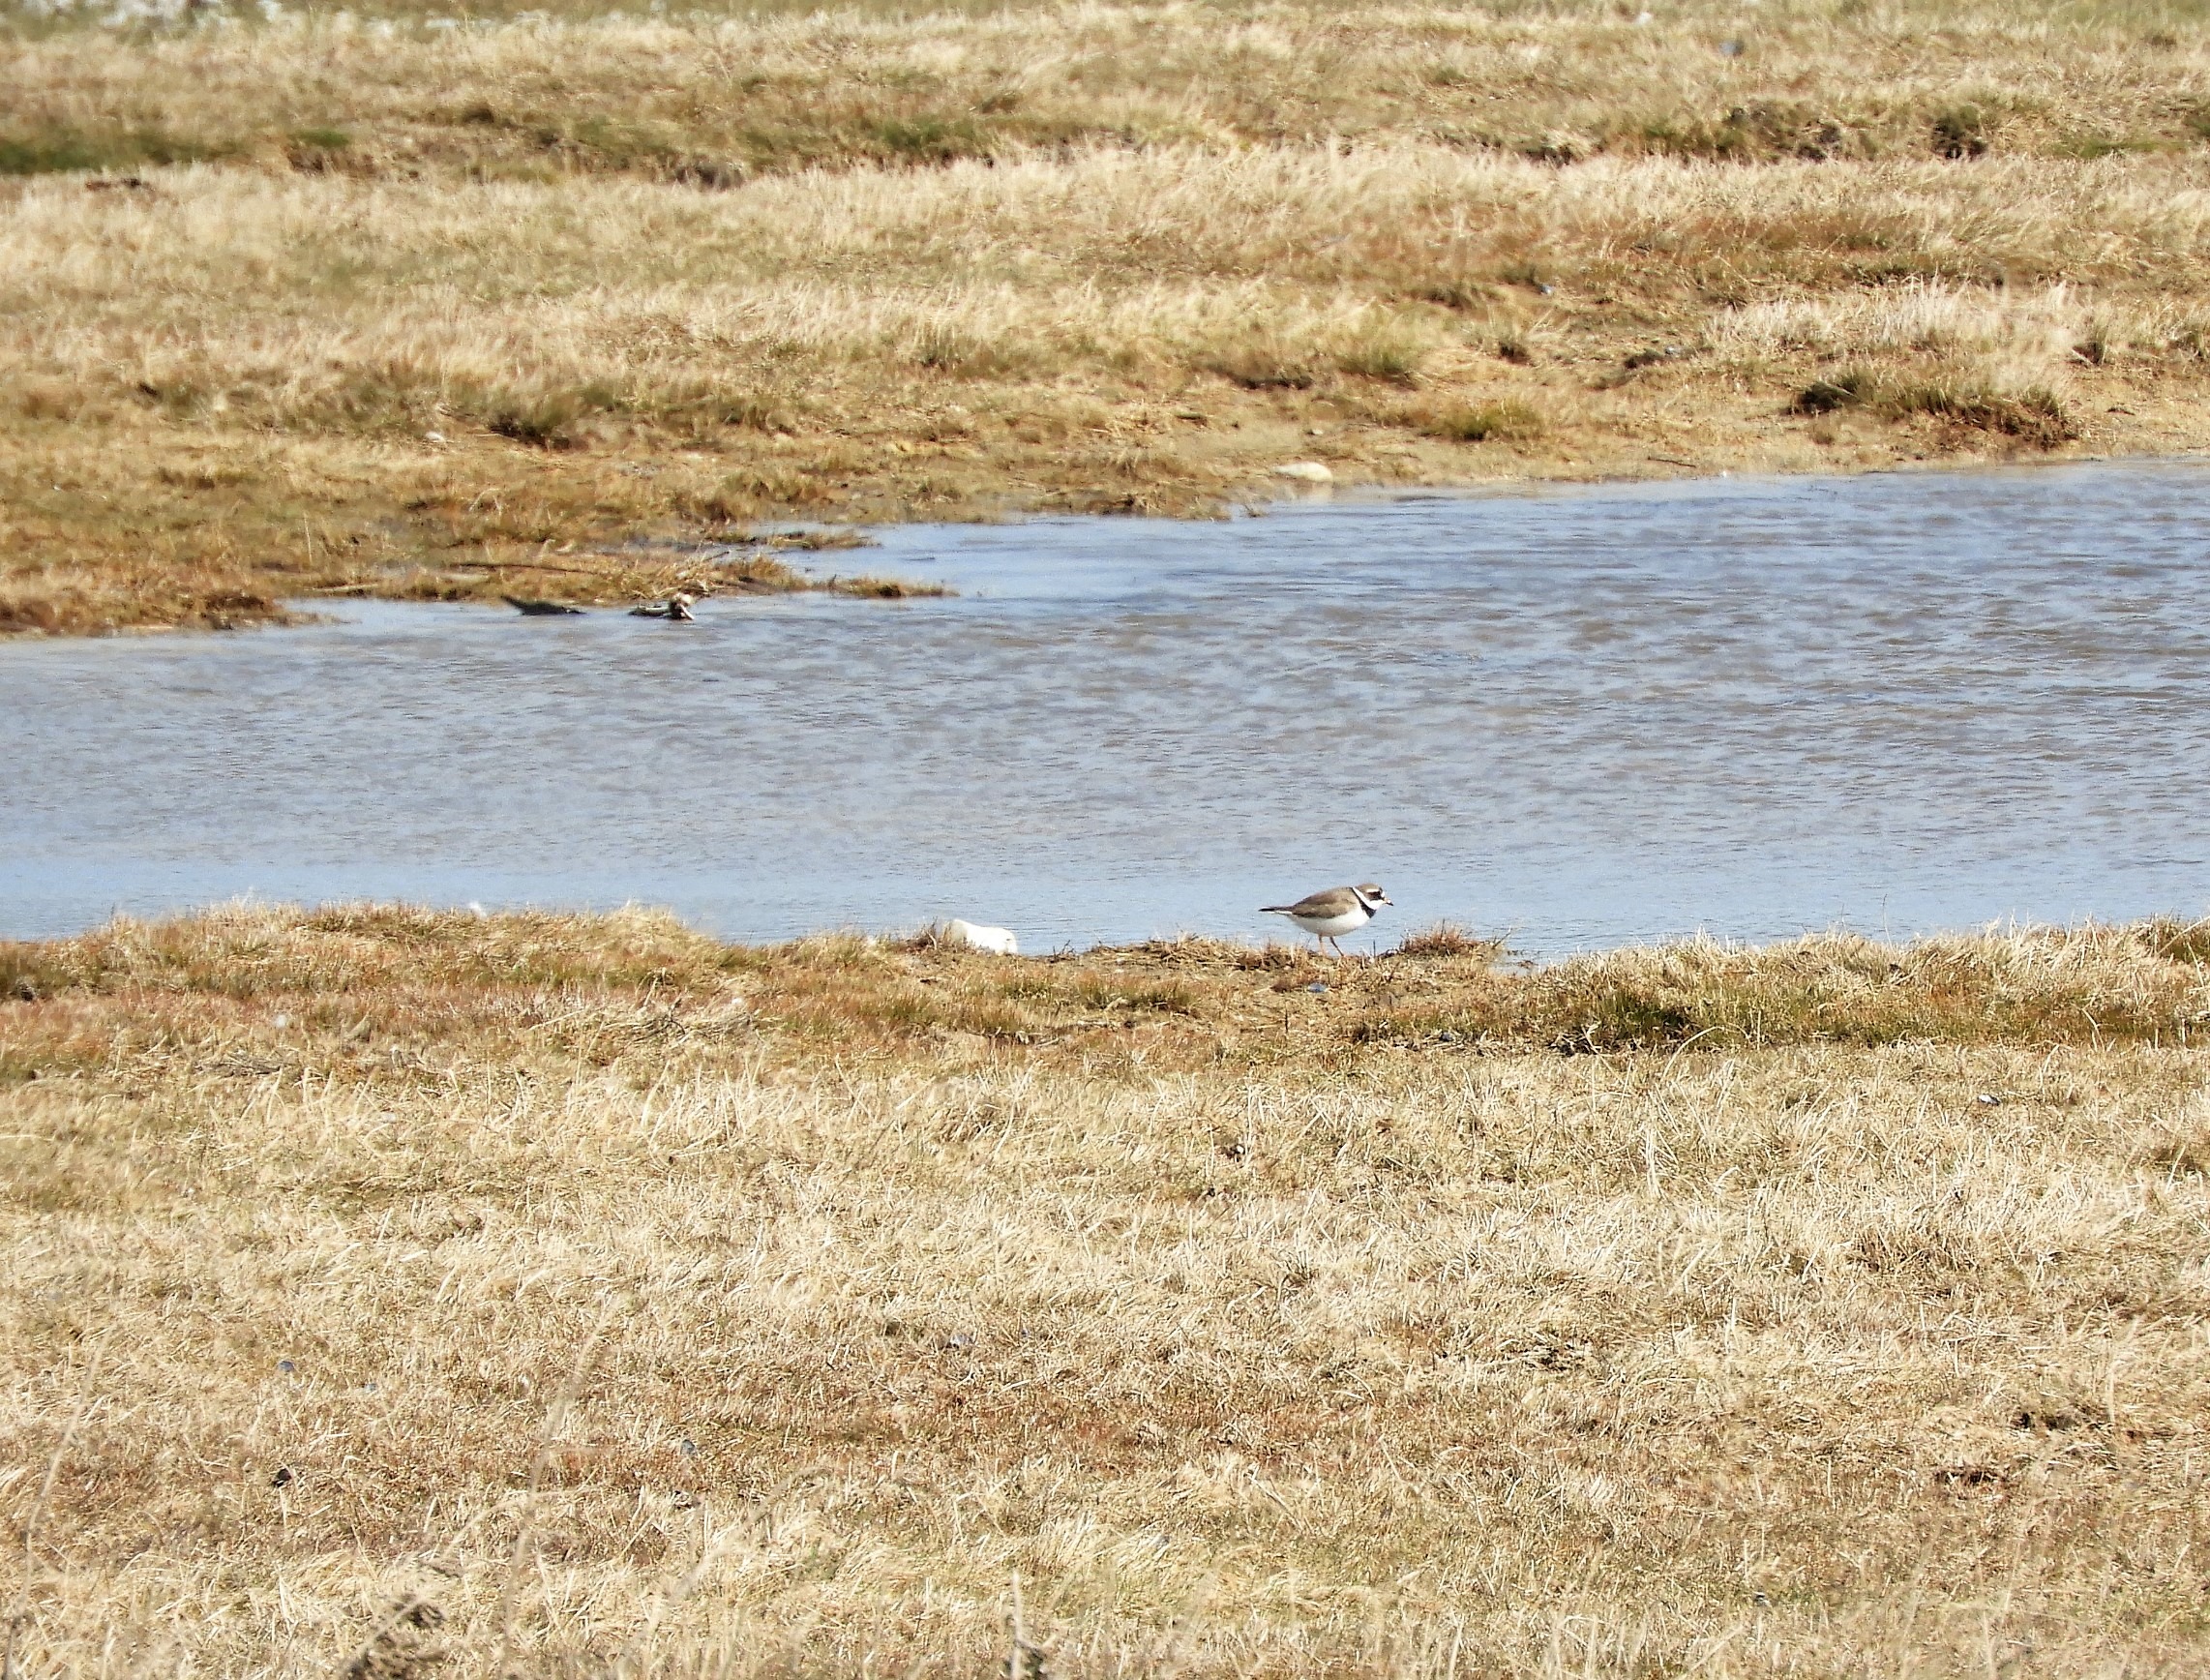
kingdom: Animalia
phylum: Chordata
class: Aves
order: Charadriiformes
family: Charadriidae
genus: Charadrius
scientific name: Charadrius hiaticula
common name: Stor præstekrave
